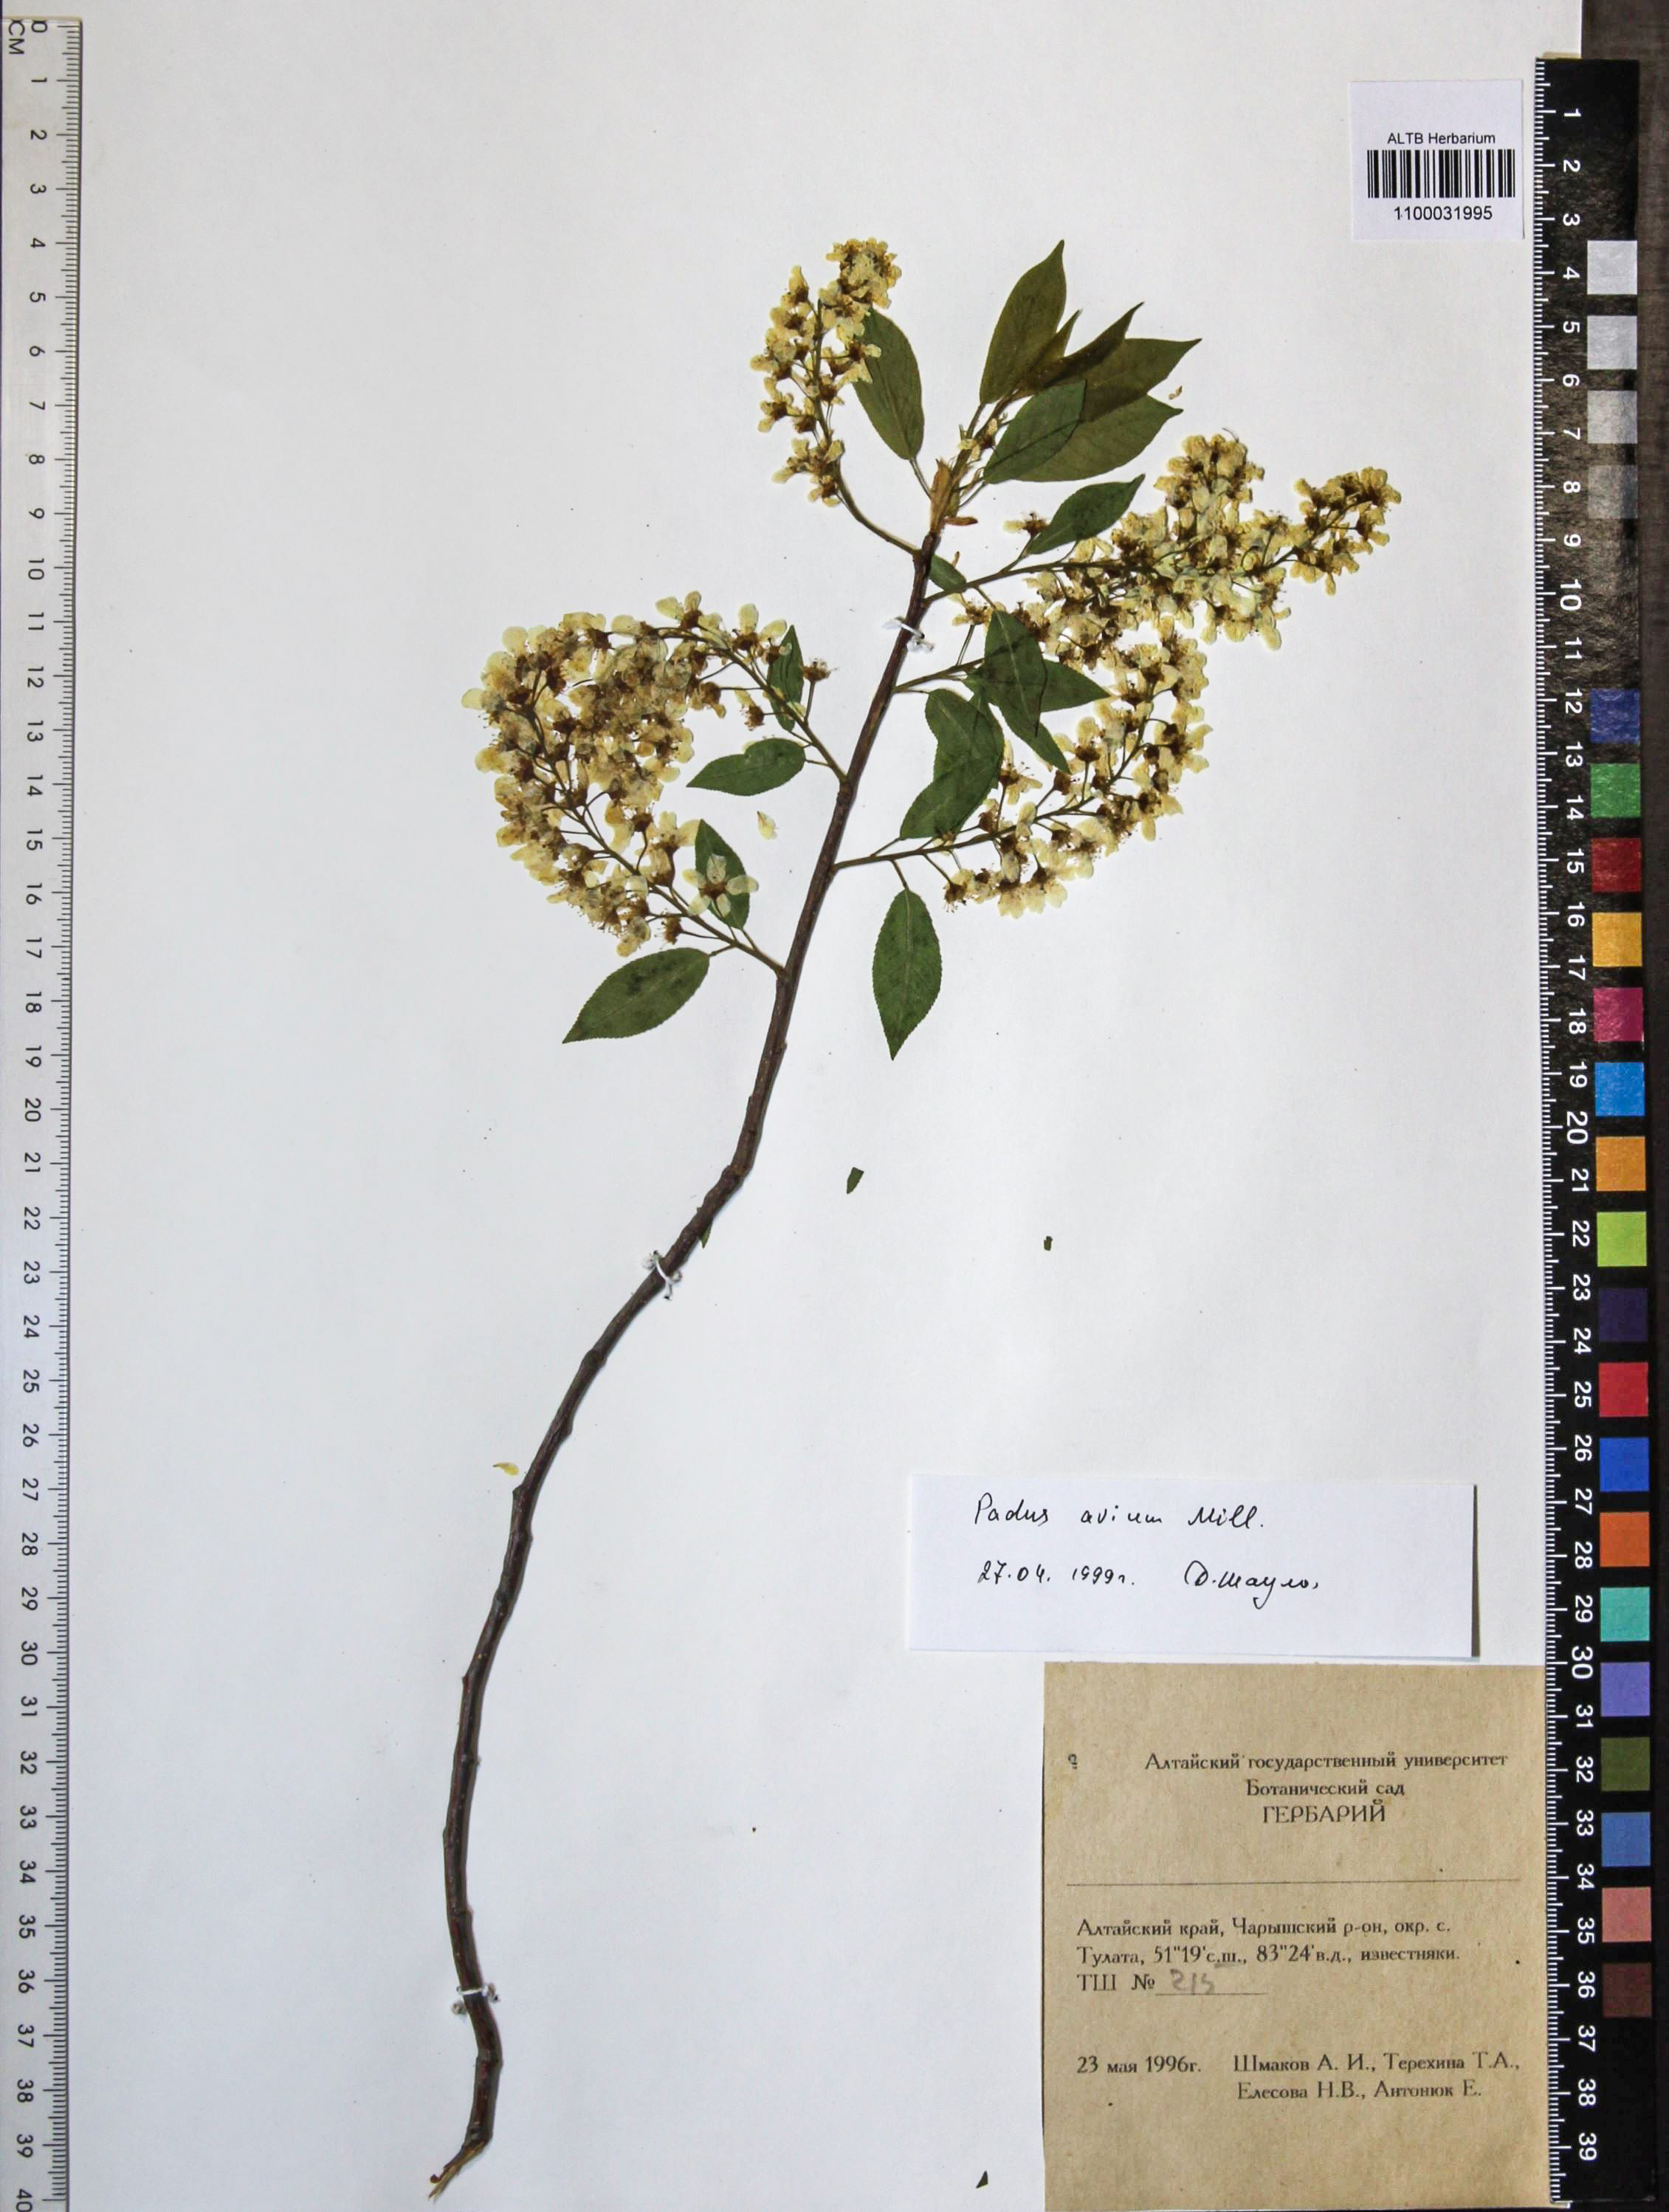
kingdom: Plantae
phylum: Tracheophyta
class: Magnoliopsida
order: Rosales
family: Rosaceae
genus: Prunus
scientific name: Prunus padus
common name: Bird cherry
